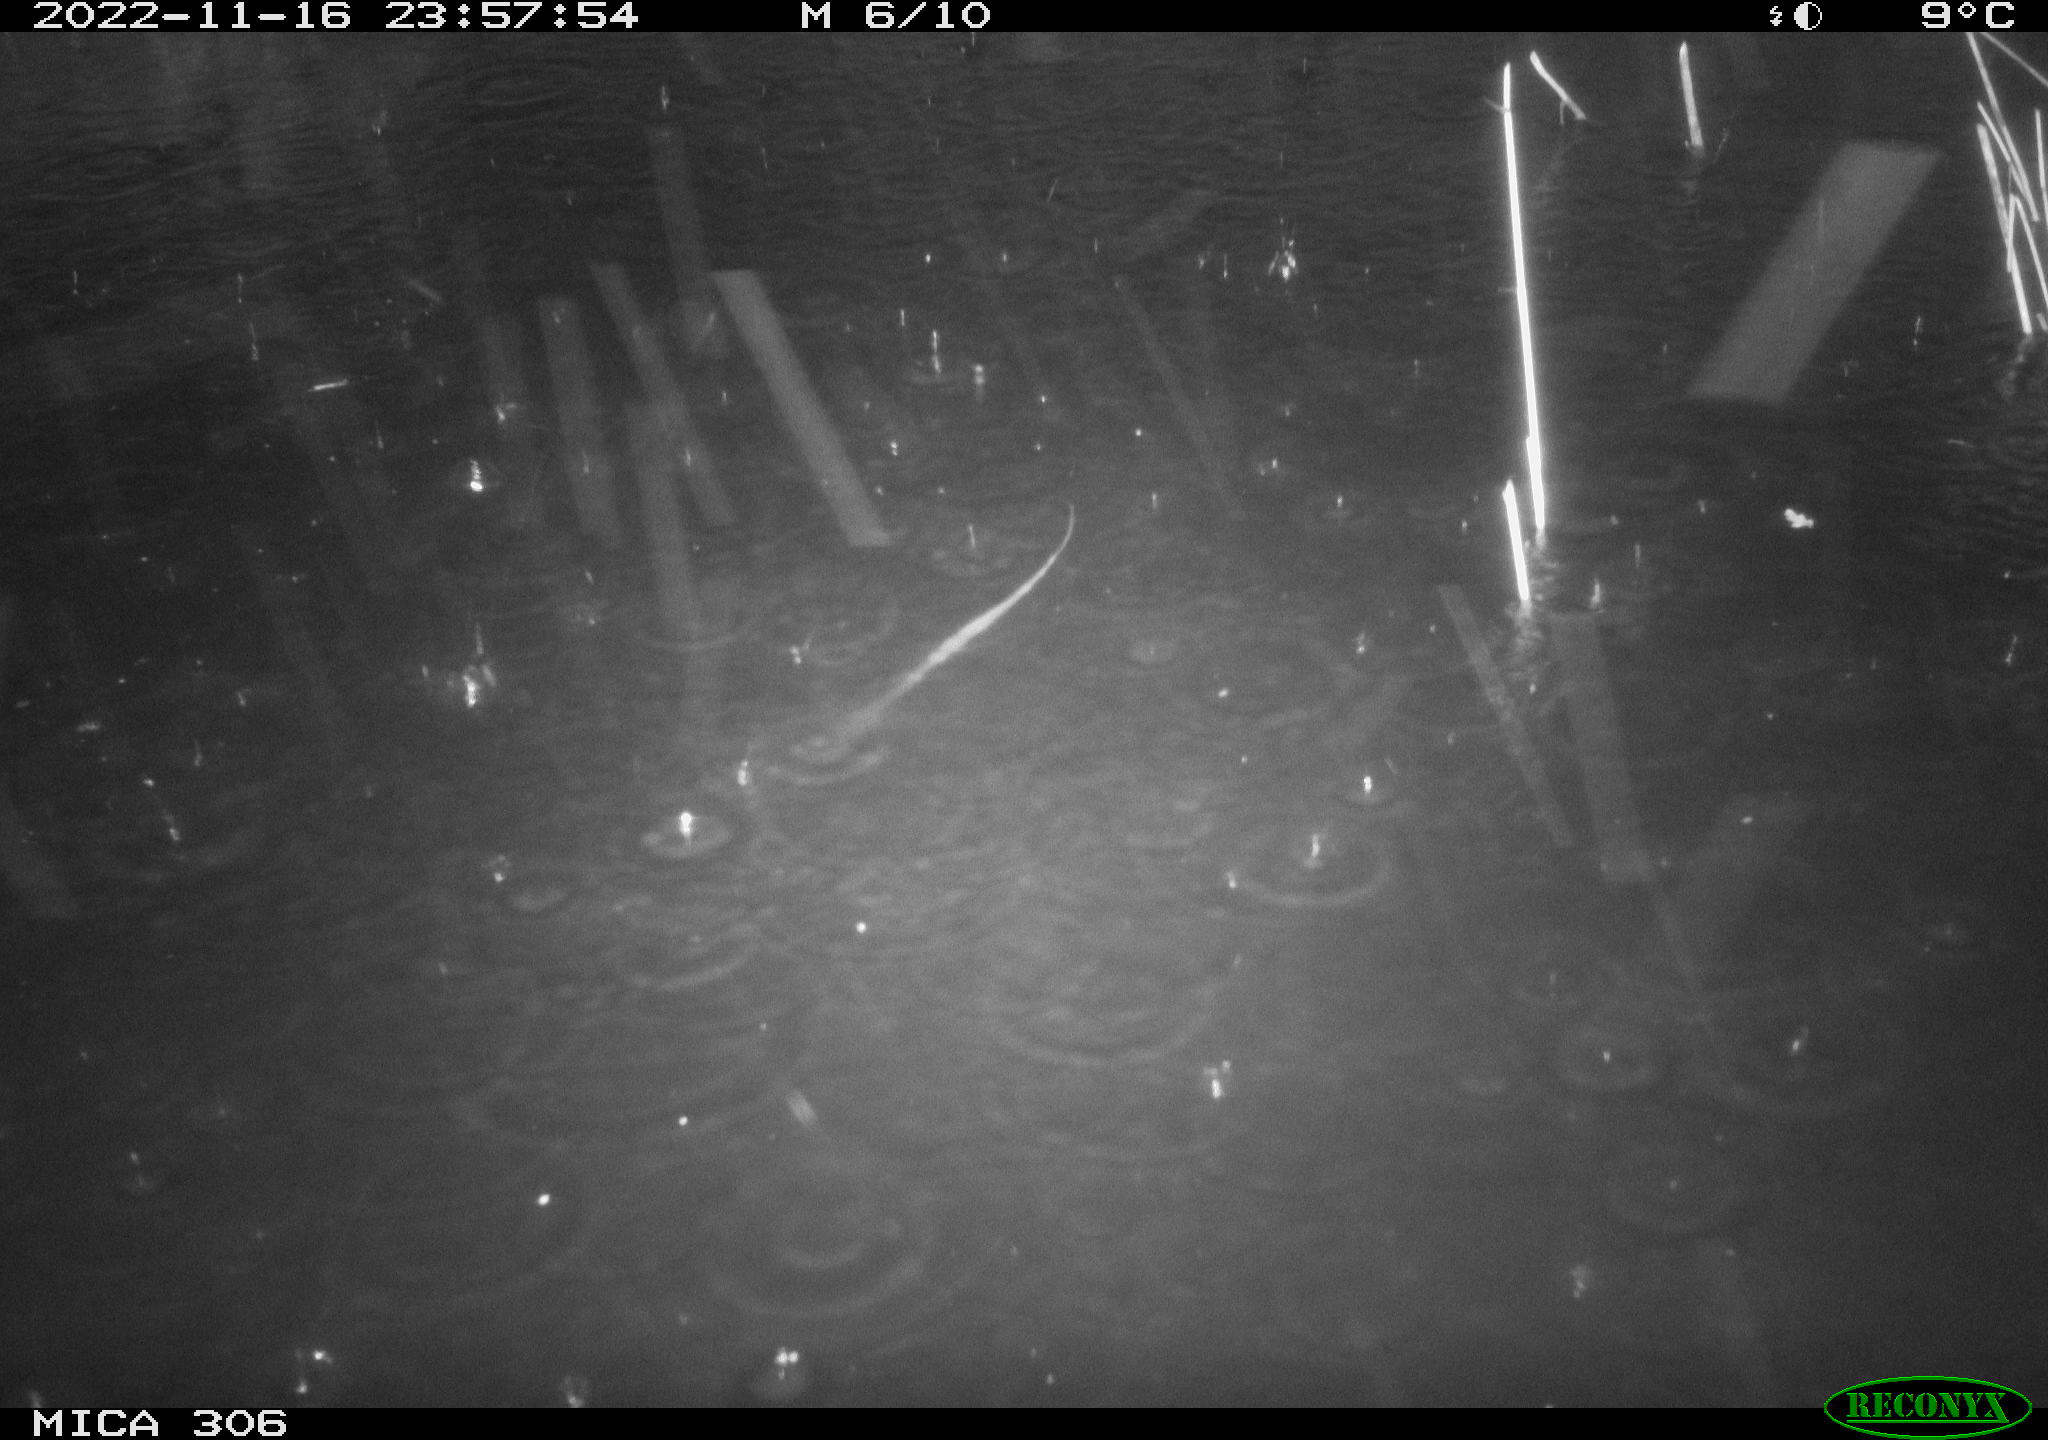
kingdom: Animalia
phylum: Chordata
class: Mammalia
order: Rodentia
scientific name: Rodentia
